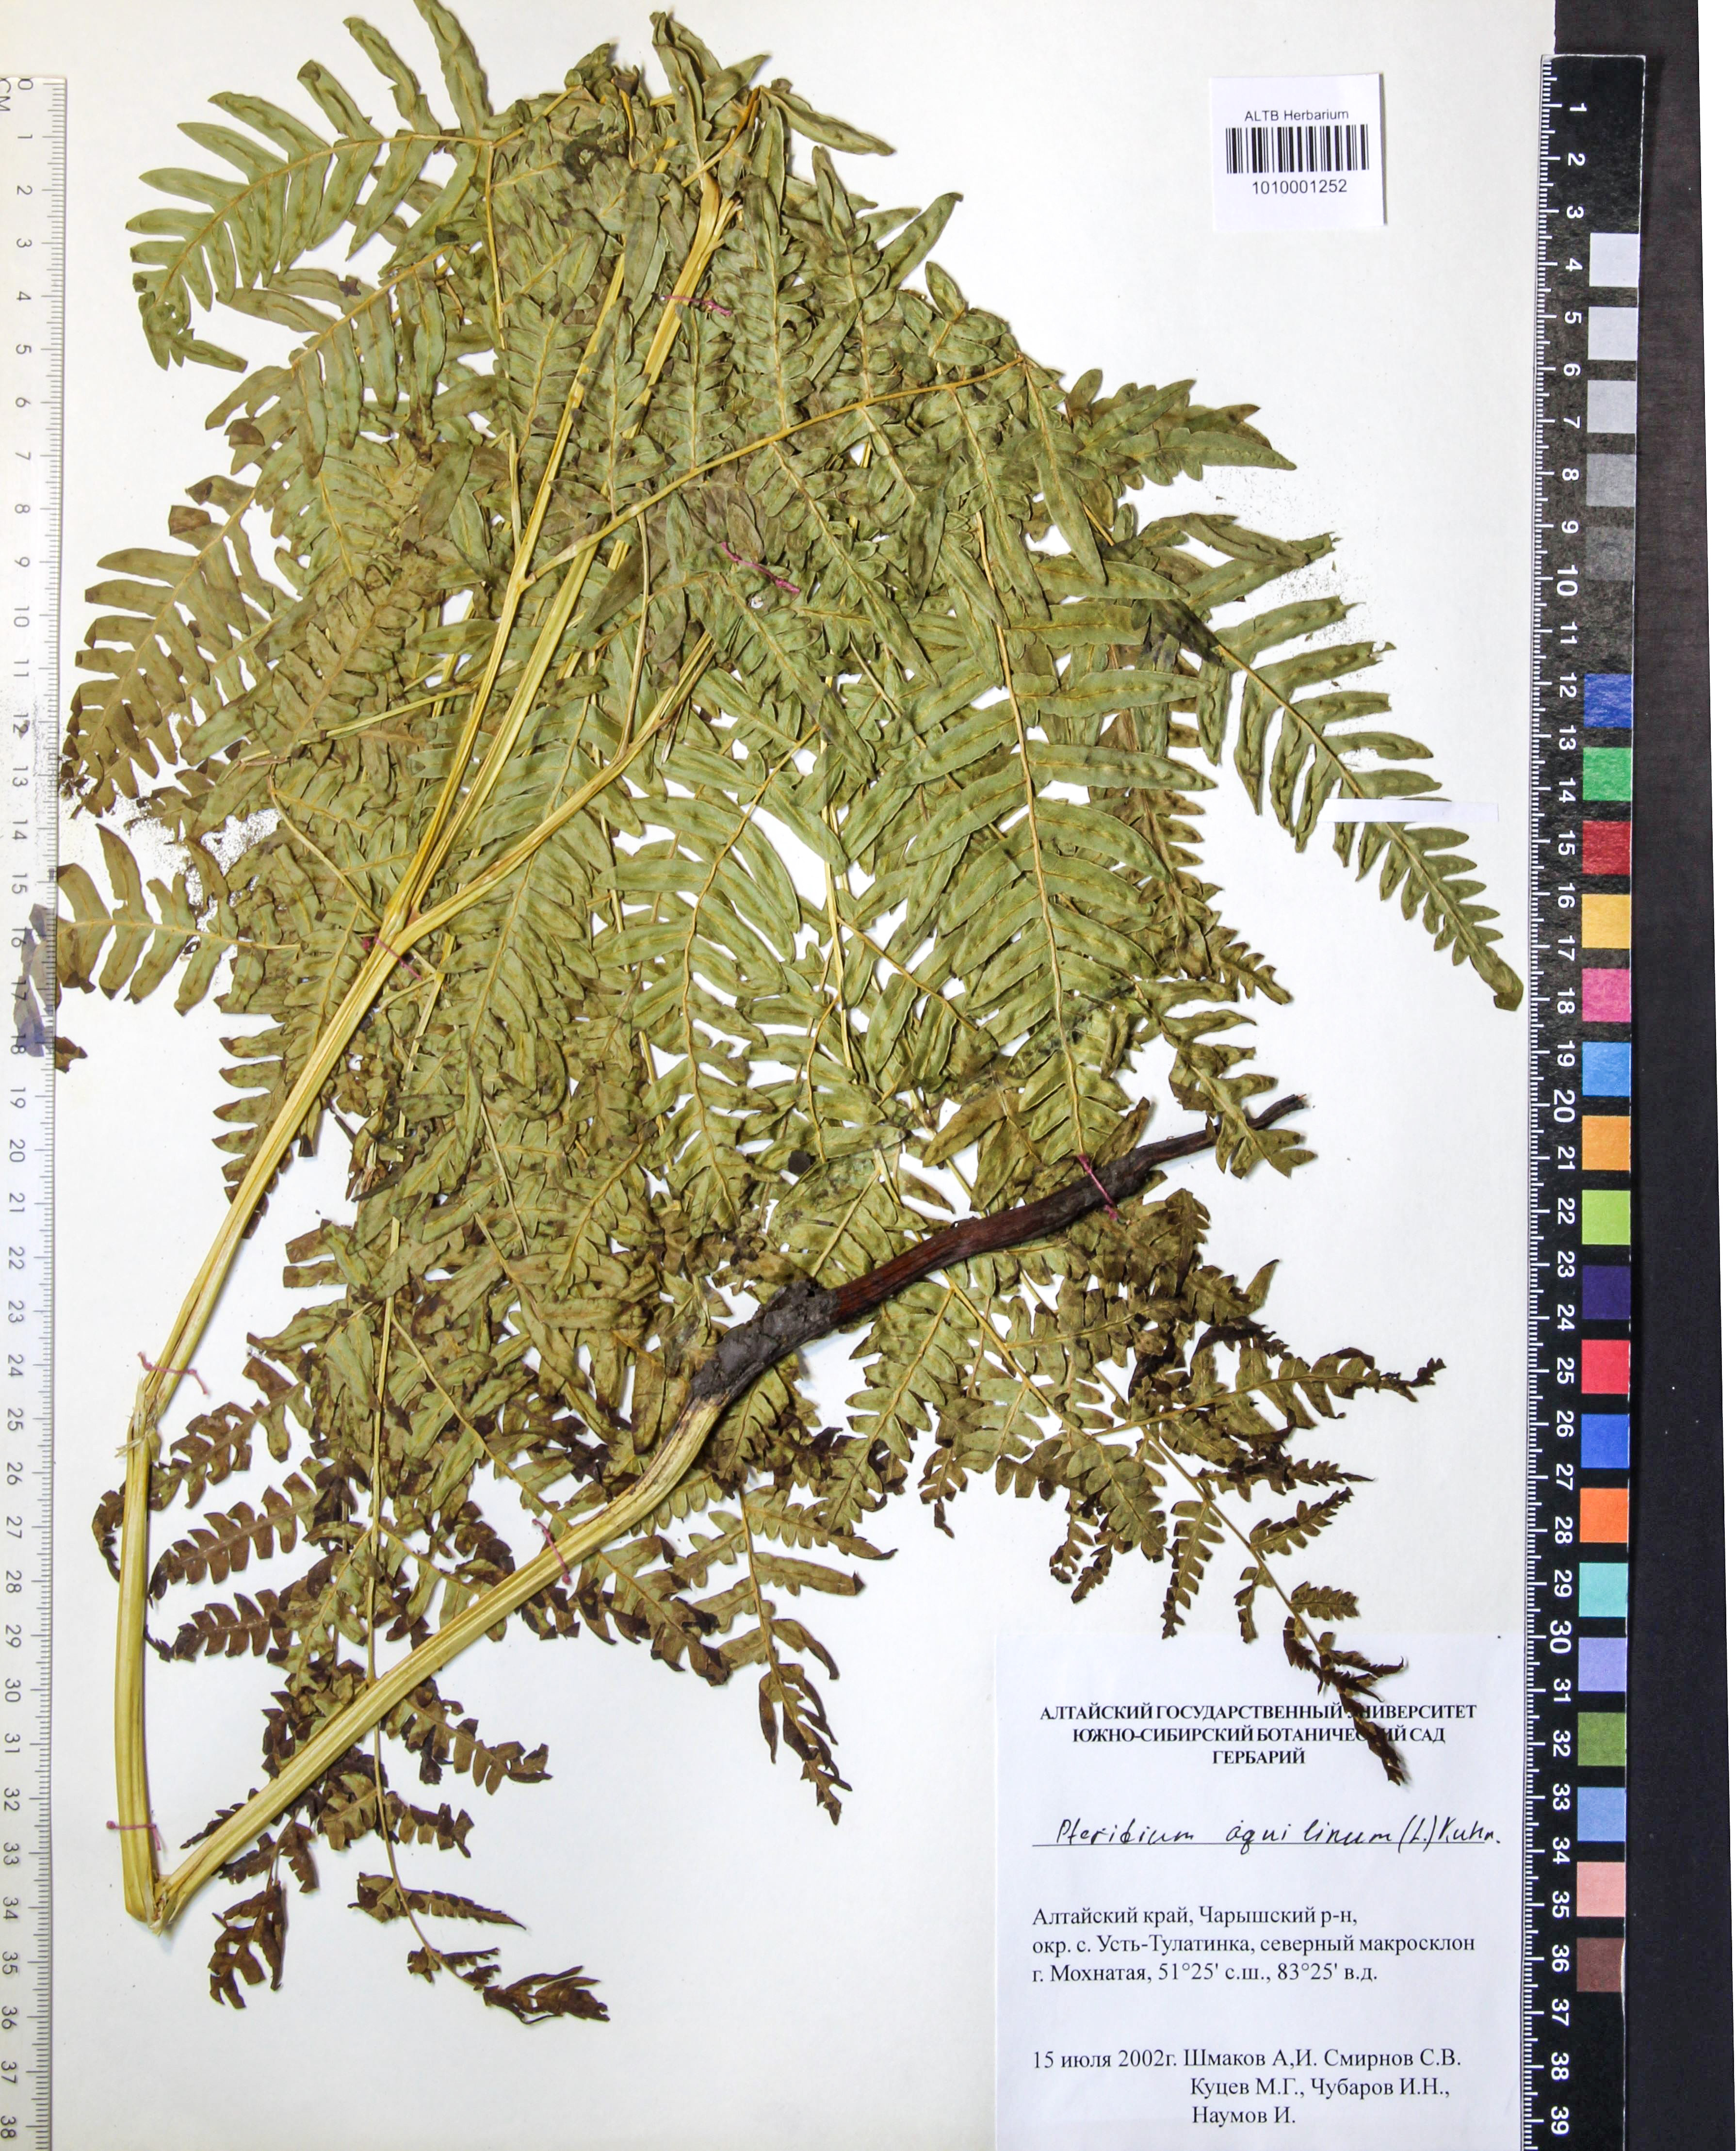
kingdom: Plantae
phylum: Tracheophyta
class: Polypodiopsida
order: Polypodiales
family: Dennstaedtiaceae
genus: Pteridium
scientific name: Pteridium aquilinum
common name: Bracken
